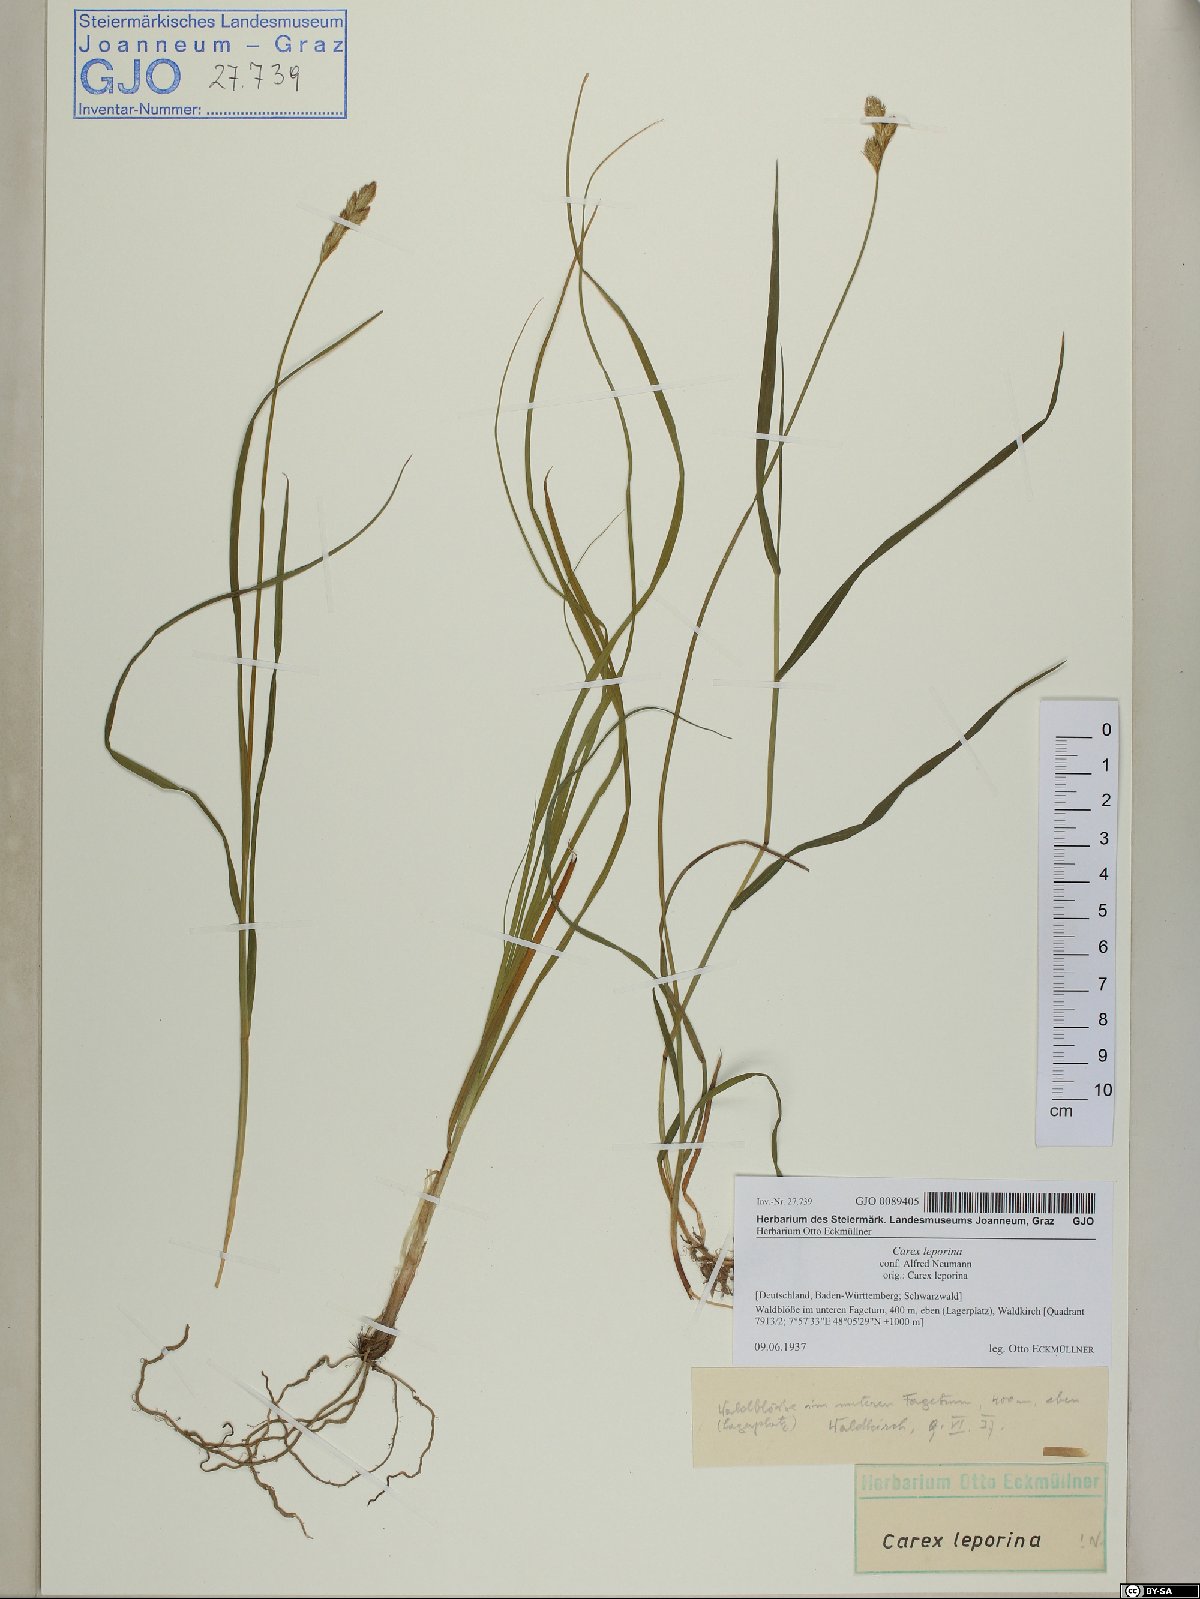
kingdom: Plantae
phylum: Tracheophyta
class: Liliopsida
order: Poales
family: Cyperaceae
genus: Carex
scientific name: Carex leporina
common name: Oval sedge
